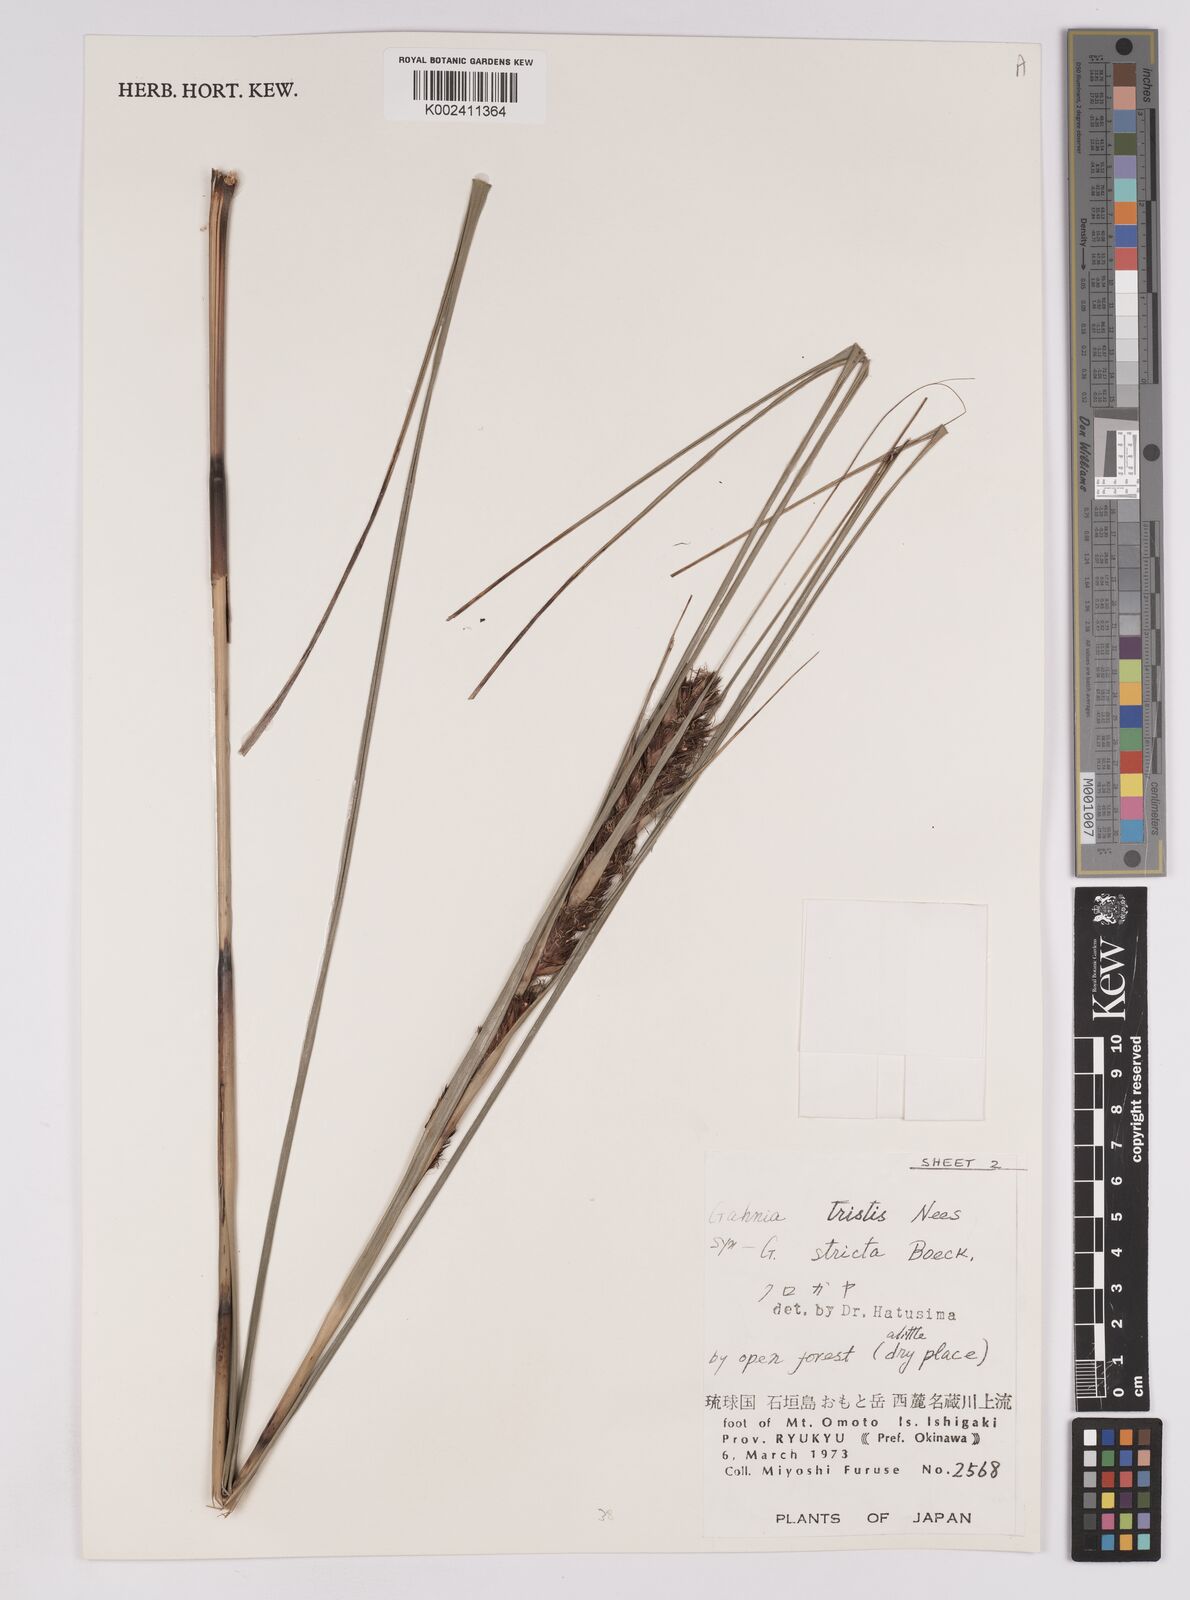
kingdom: Plantae
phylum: Tracheophyta
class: Liliopsida
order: Poales
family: Cyperaceae
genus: Gahnia
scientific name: Gahnia tristis
